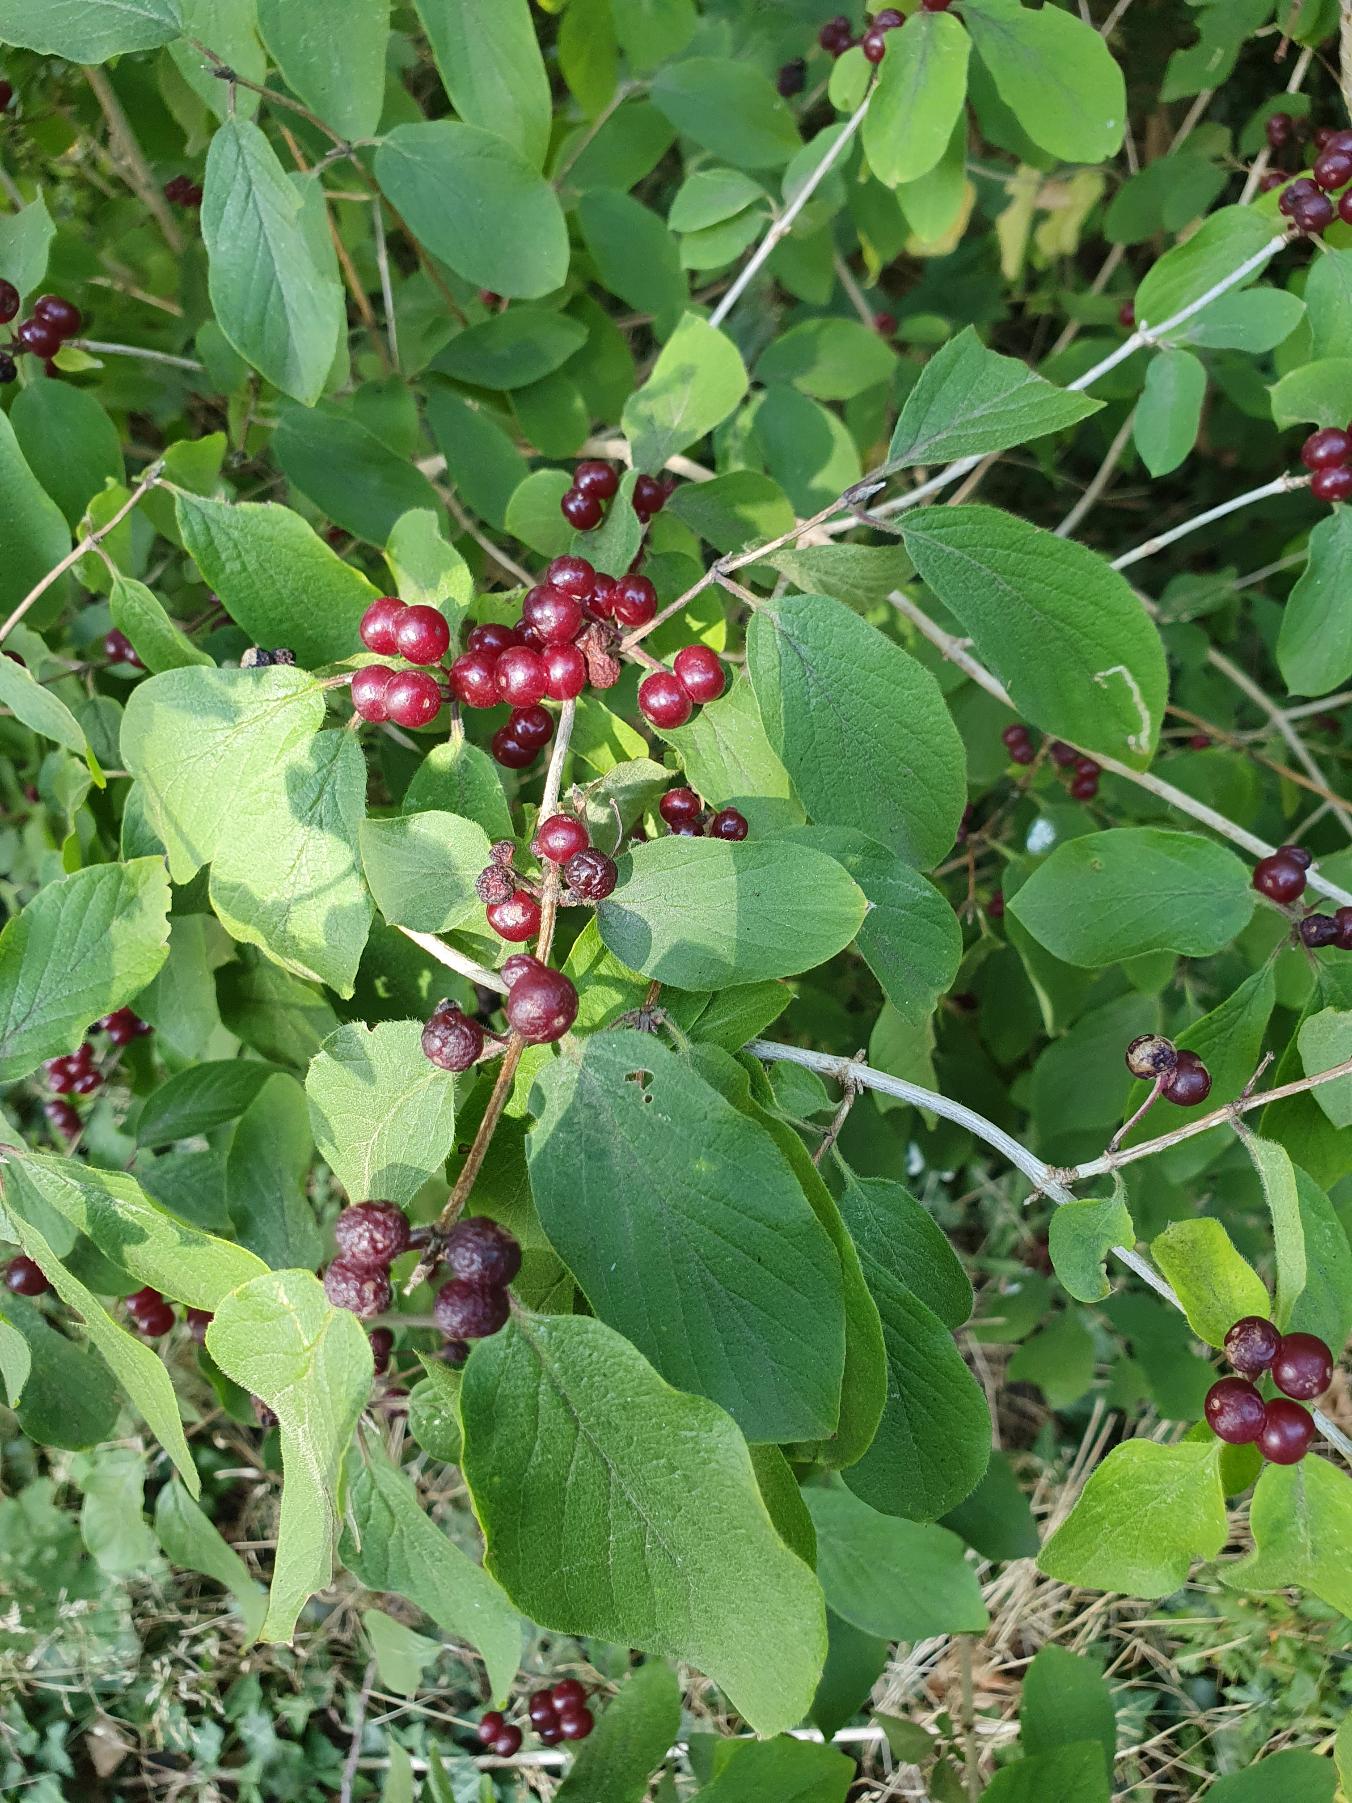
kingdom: Plantae
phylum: Tracheophyta
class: Magnoliopsida
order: Dipsacales
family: Caprifoliaceae
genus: Lonicera
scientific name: Lonicera xylosteum
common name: Dunet gedeblad
